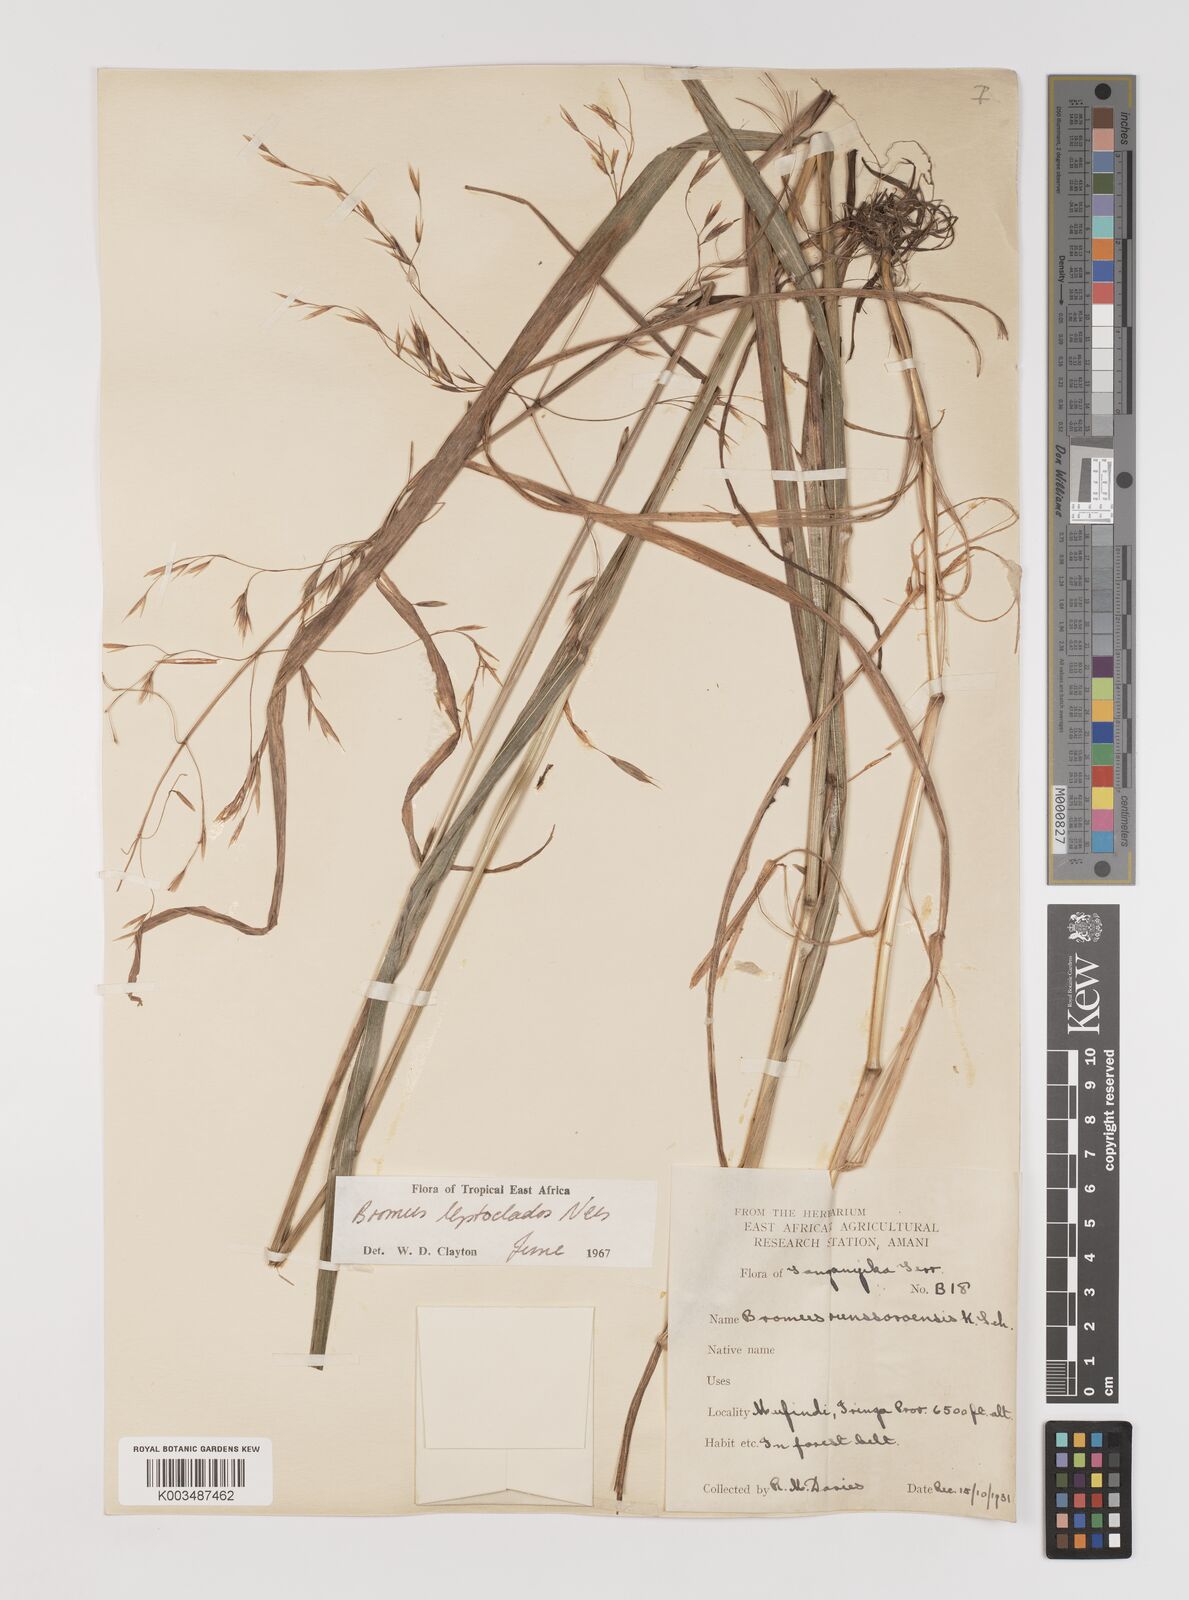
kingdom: Plantae
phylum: Tracheophyta
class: Liliopsida
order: Poales
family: Poaceae
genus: Bromus
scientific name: Bromus leptoclados
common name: Mountain bromegrass
